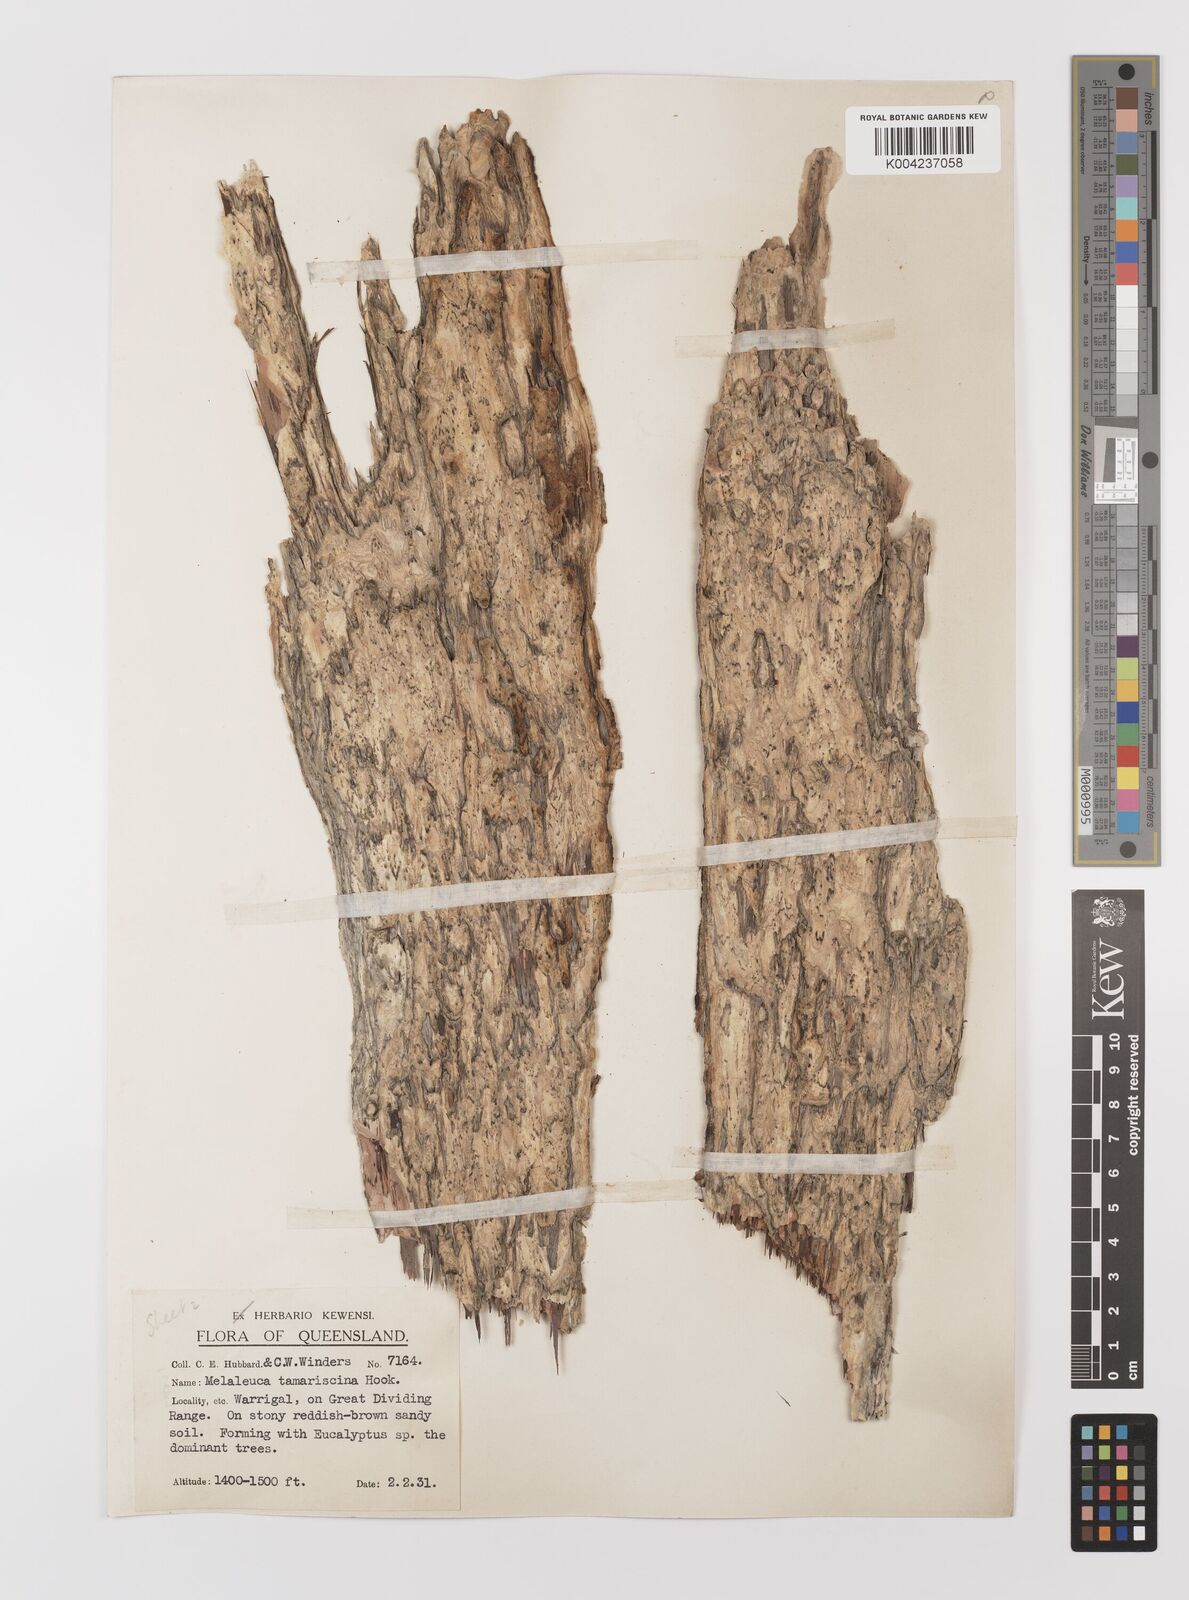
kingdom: Plantae
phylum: Tracheophyta
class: Magnoliopsida
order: Myrtales
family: Myrtaceae
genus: Melaleuca
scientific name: Melaleuca tamariscina
